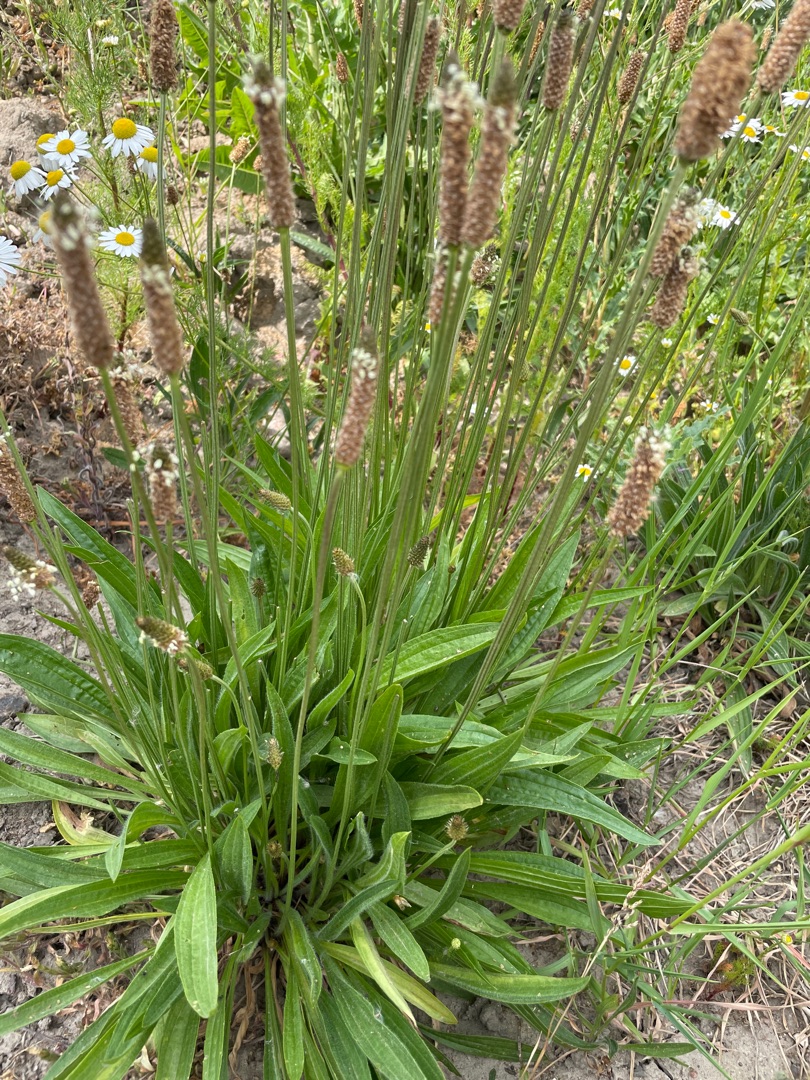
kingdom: Plantae
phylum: Tracheophyta
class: Magnoliopsida
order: Lamiales
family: Plantaginaceae
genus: Plantago
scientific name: Plantago lanceolata
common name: Lancet-vejbred
